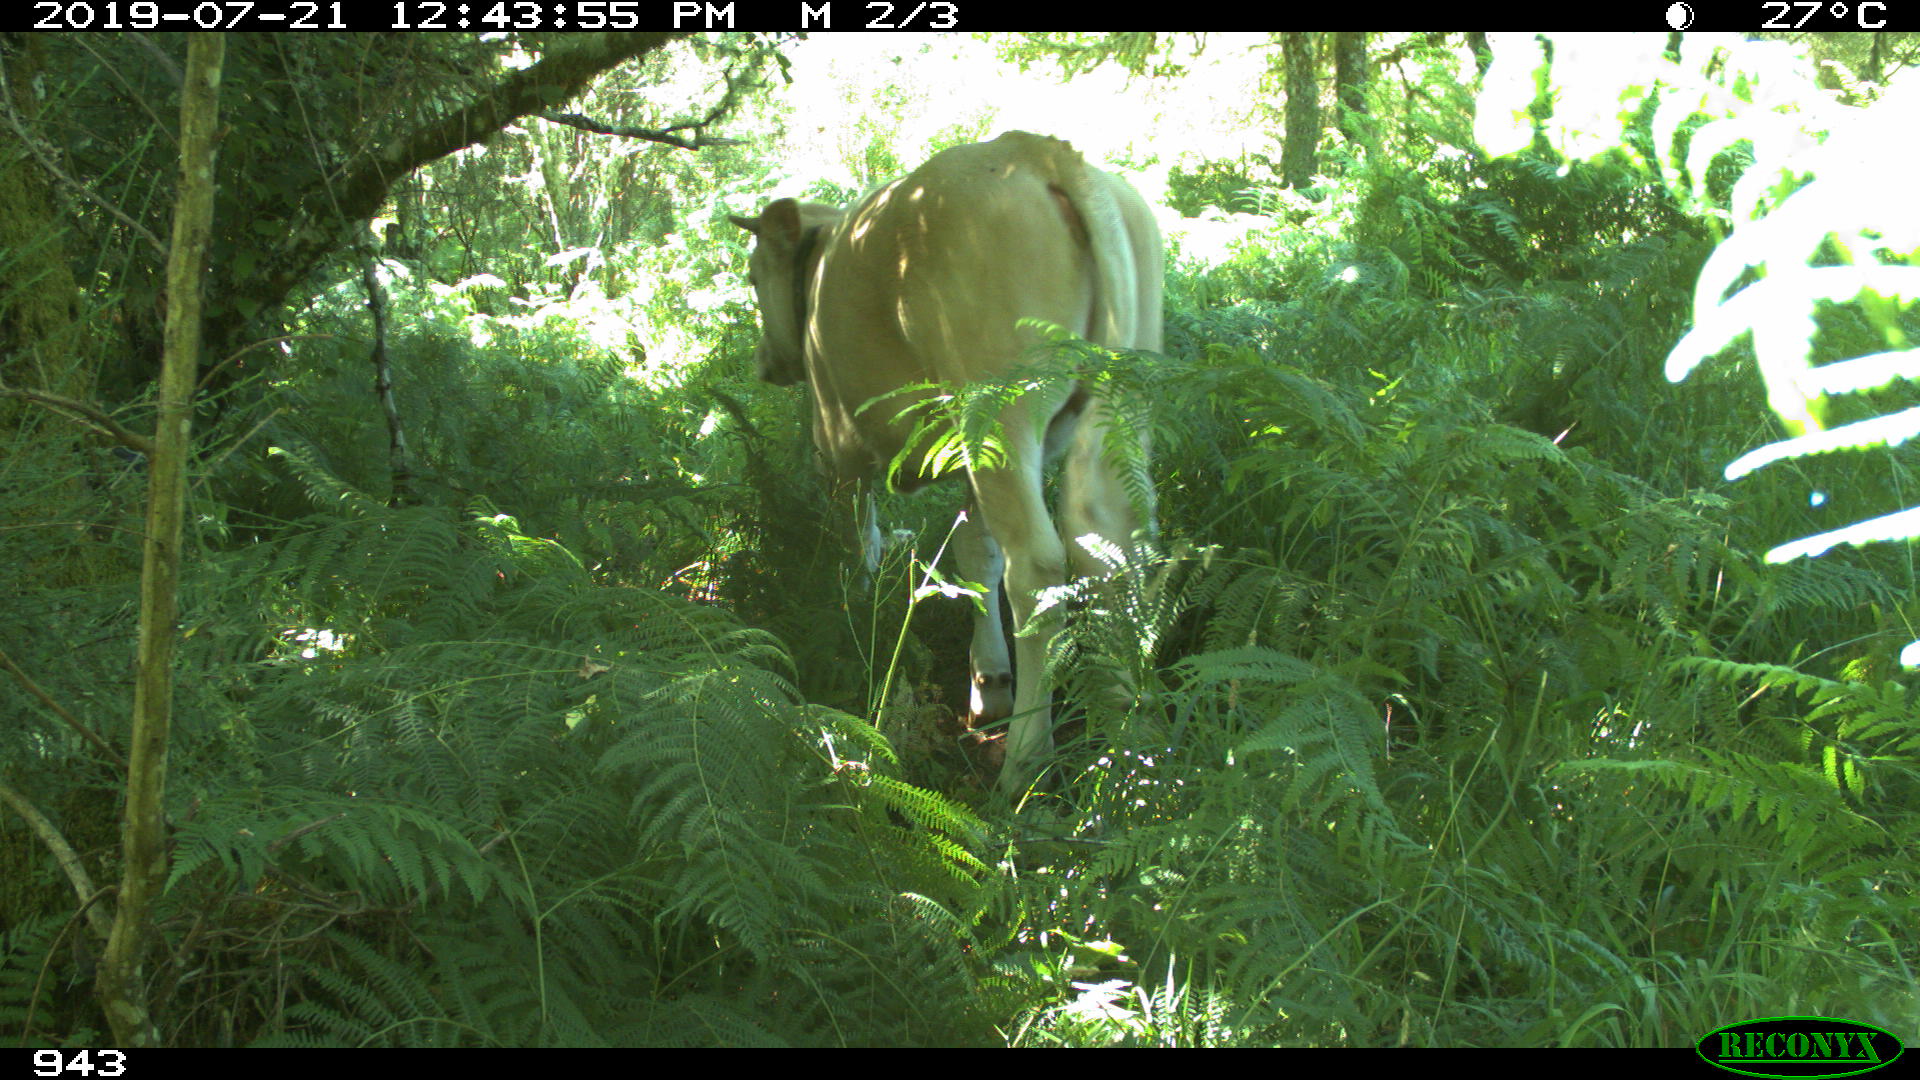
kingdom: Animalia
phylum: Chordata
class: Mammalia
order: Artiodactyla
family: Bovidae
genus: Bos
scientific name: Bos taurus
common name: Domesticated cattle
